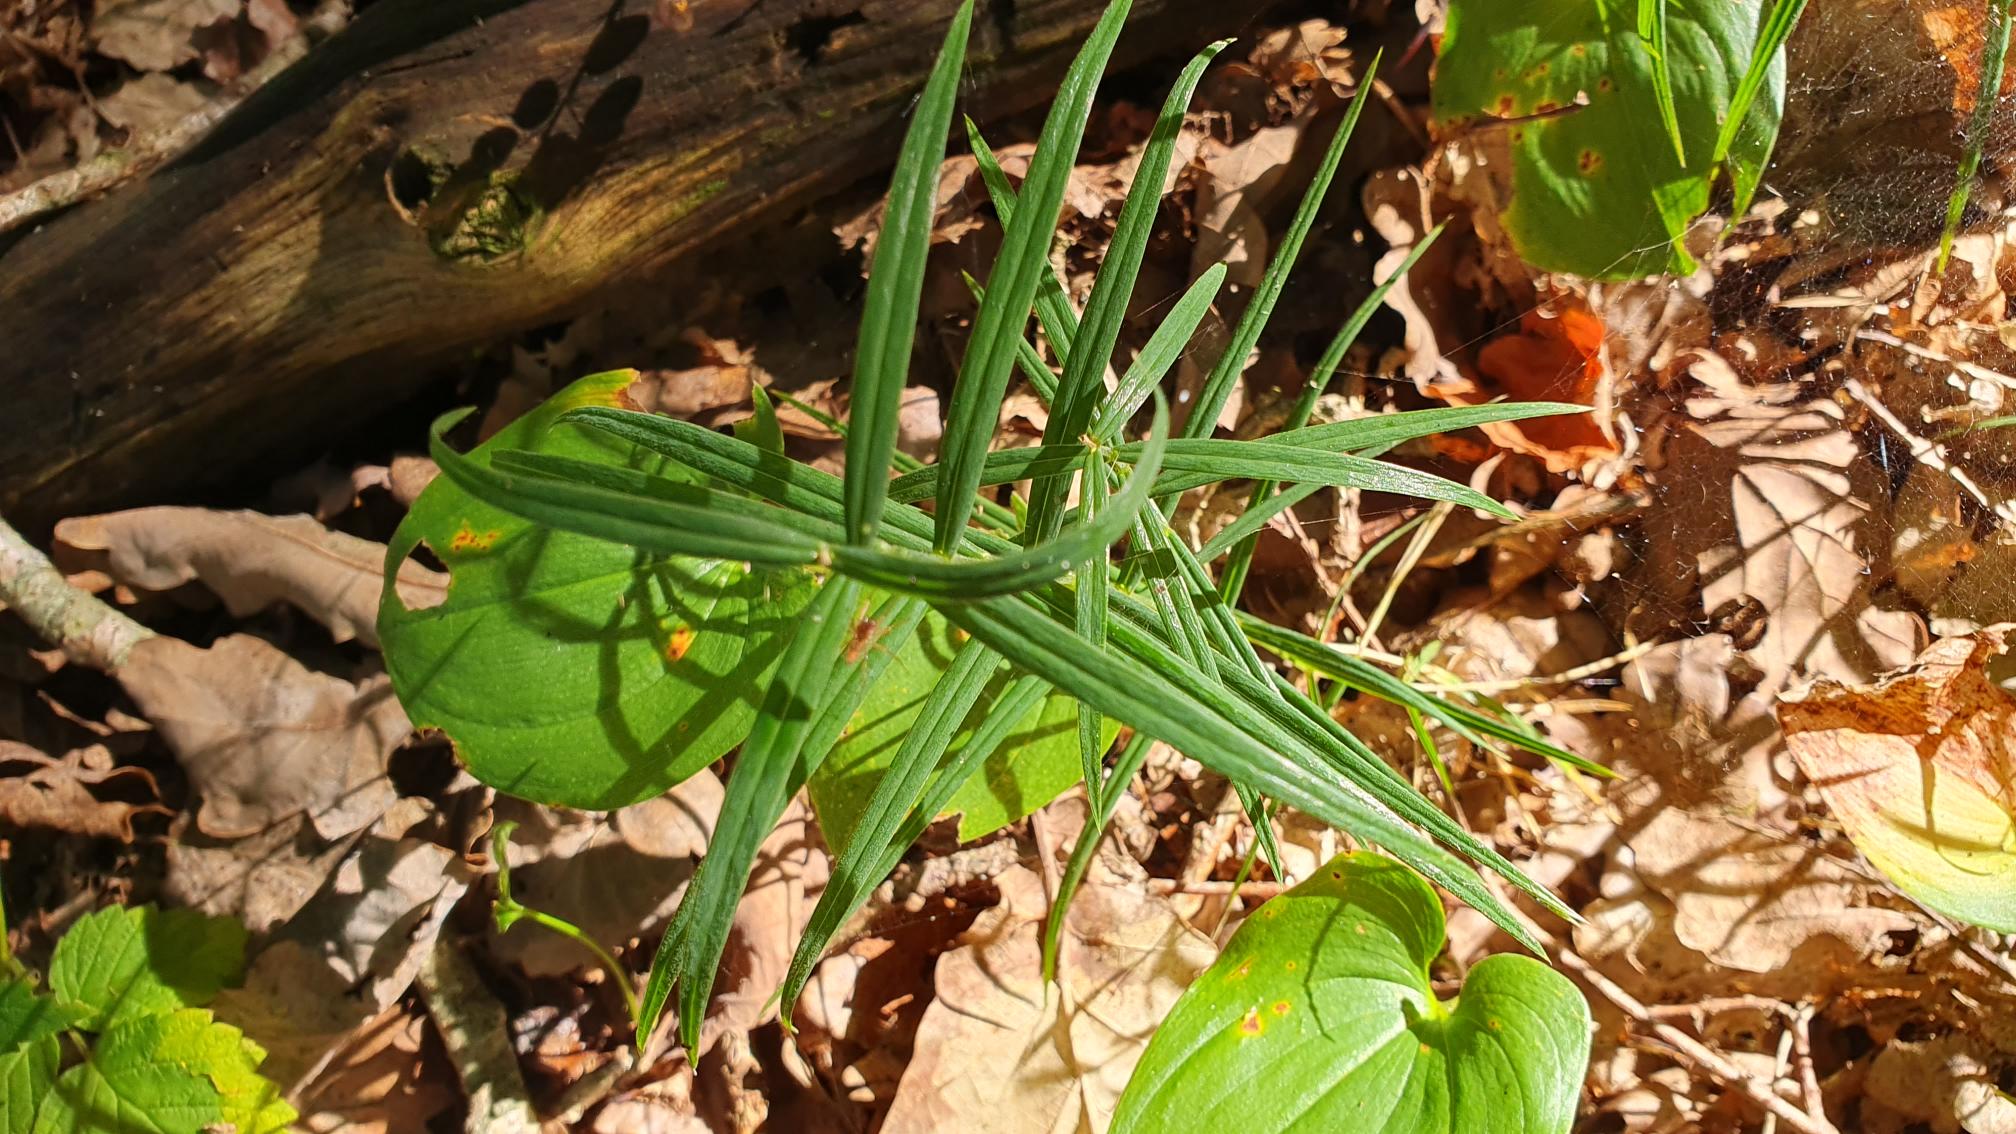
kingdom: Plantae
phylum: Tracheophyta
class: Magnoliopsida
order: Caryophyllales
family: Caryophyllaceae
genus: Rabelera
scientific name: Rabelera holostea
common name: Stor fladstjerne
